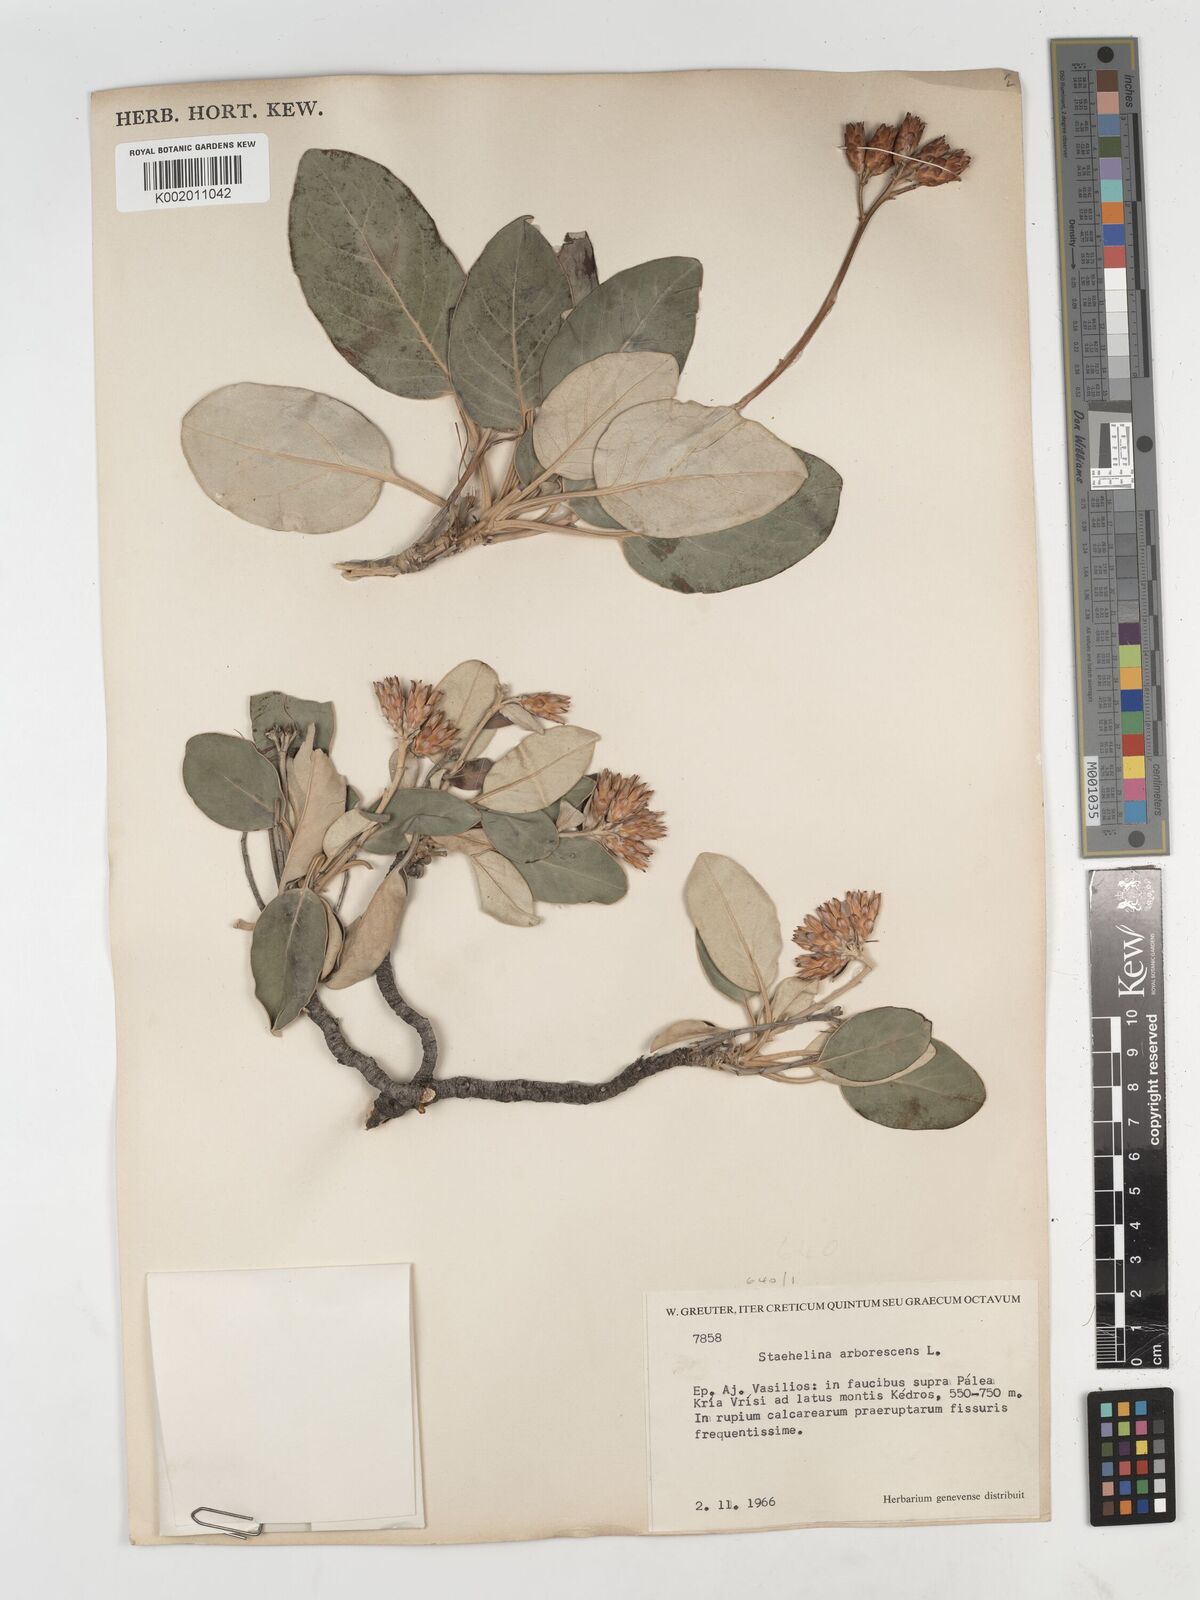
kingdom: Plantae
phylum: Tracheophyta
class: Magnoliopsida
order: Asterales
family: Asteraceae
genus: Staehelina
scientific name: Staehelina petiolata
